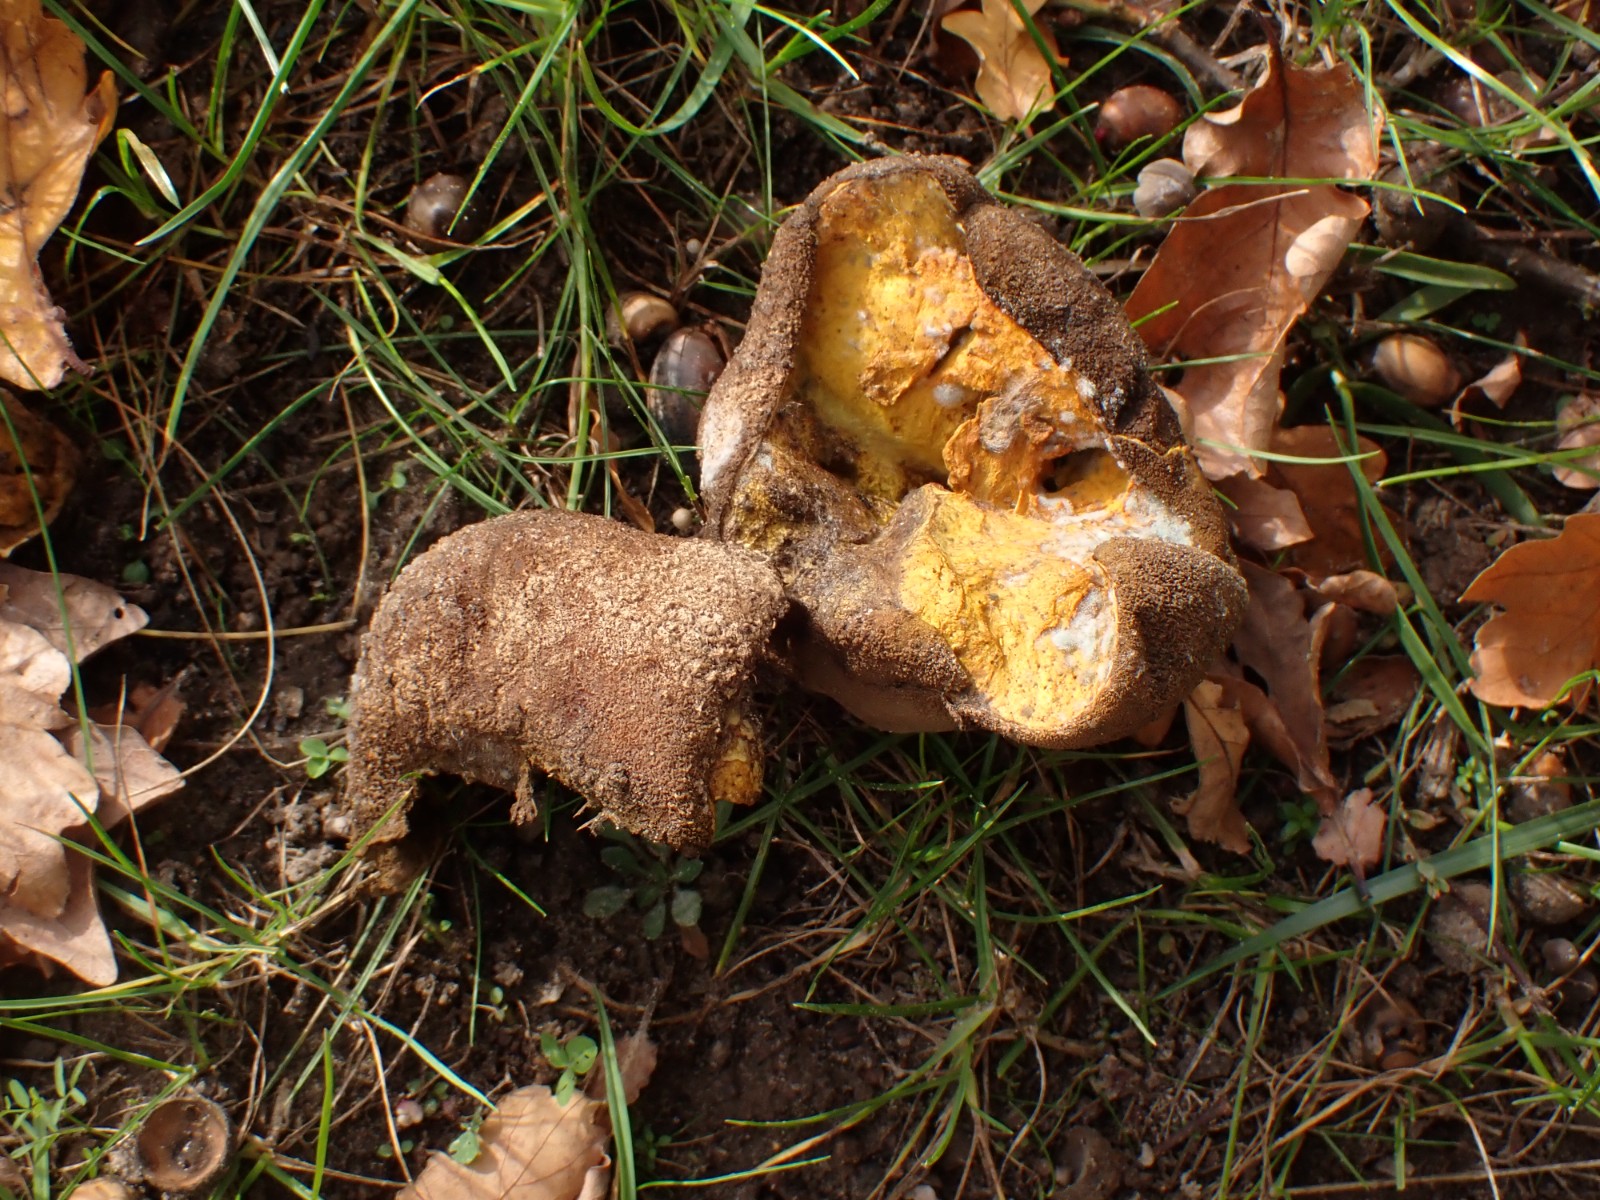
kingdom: Fungi
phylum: Basidiomycota
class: Agaricomycetes
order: Agaricales
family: Lycoperdaceae
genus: Bovistella
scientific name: Bovistella utriformis
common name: skællet støvbold
